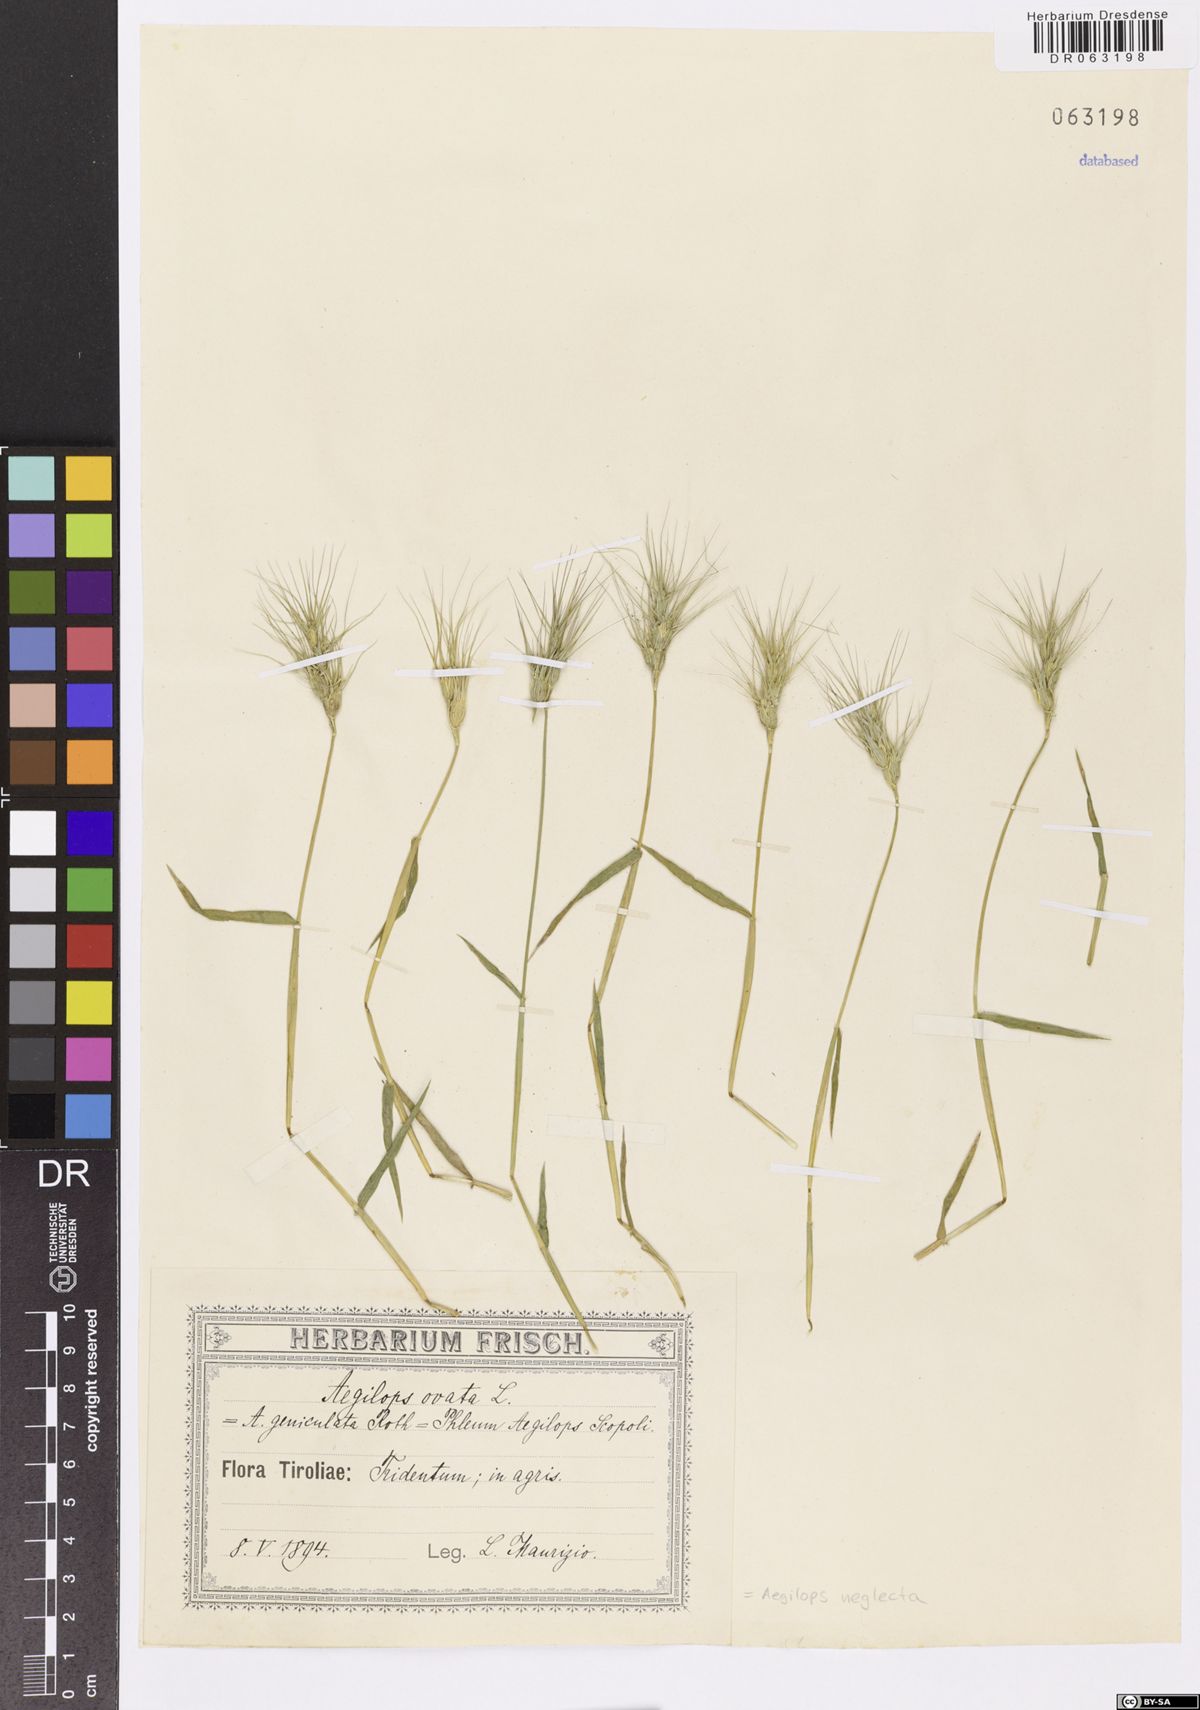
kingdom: Plantae
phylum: Tracheophyta
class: Liliopsida
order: Poales
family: Poaceae
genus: Aegilops
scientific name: Aegilops neglecta
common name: Three-awn goat grass
